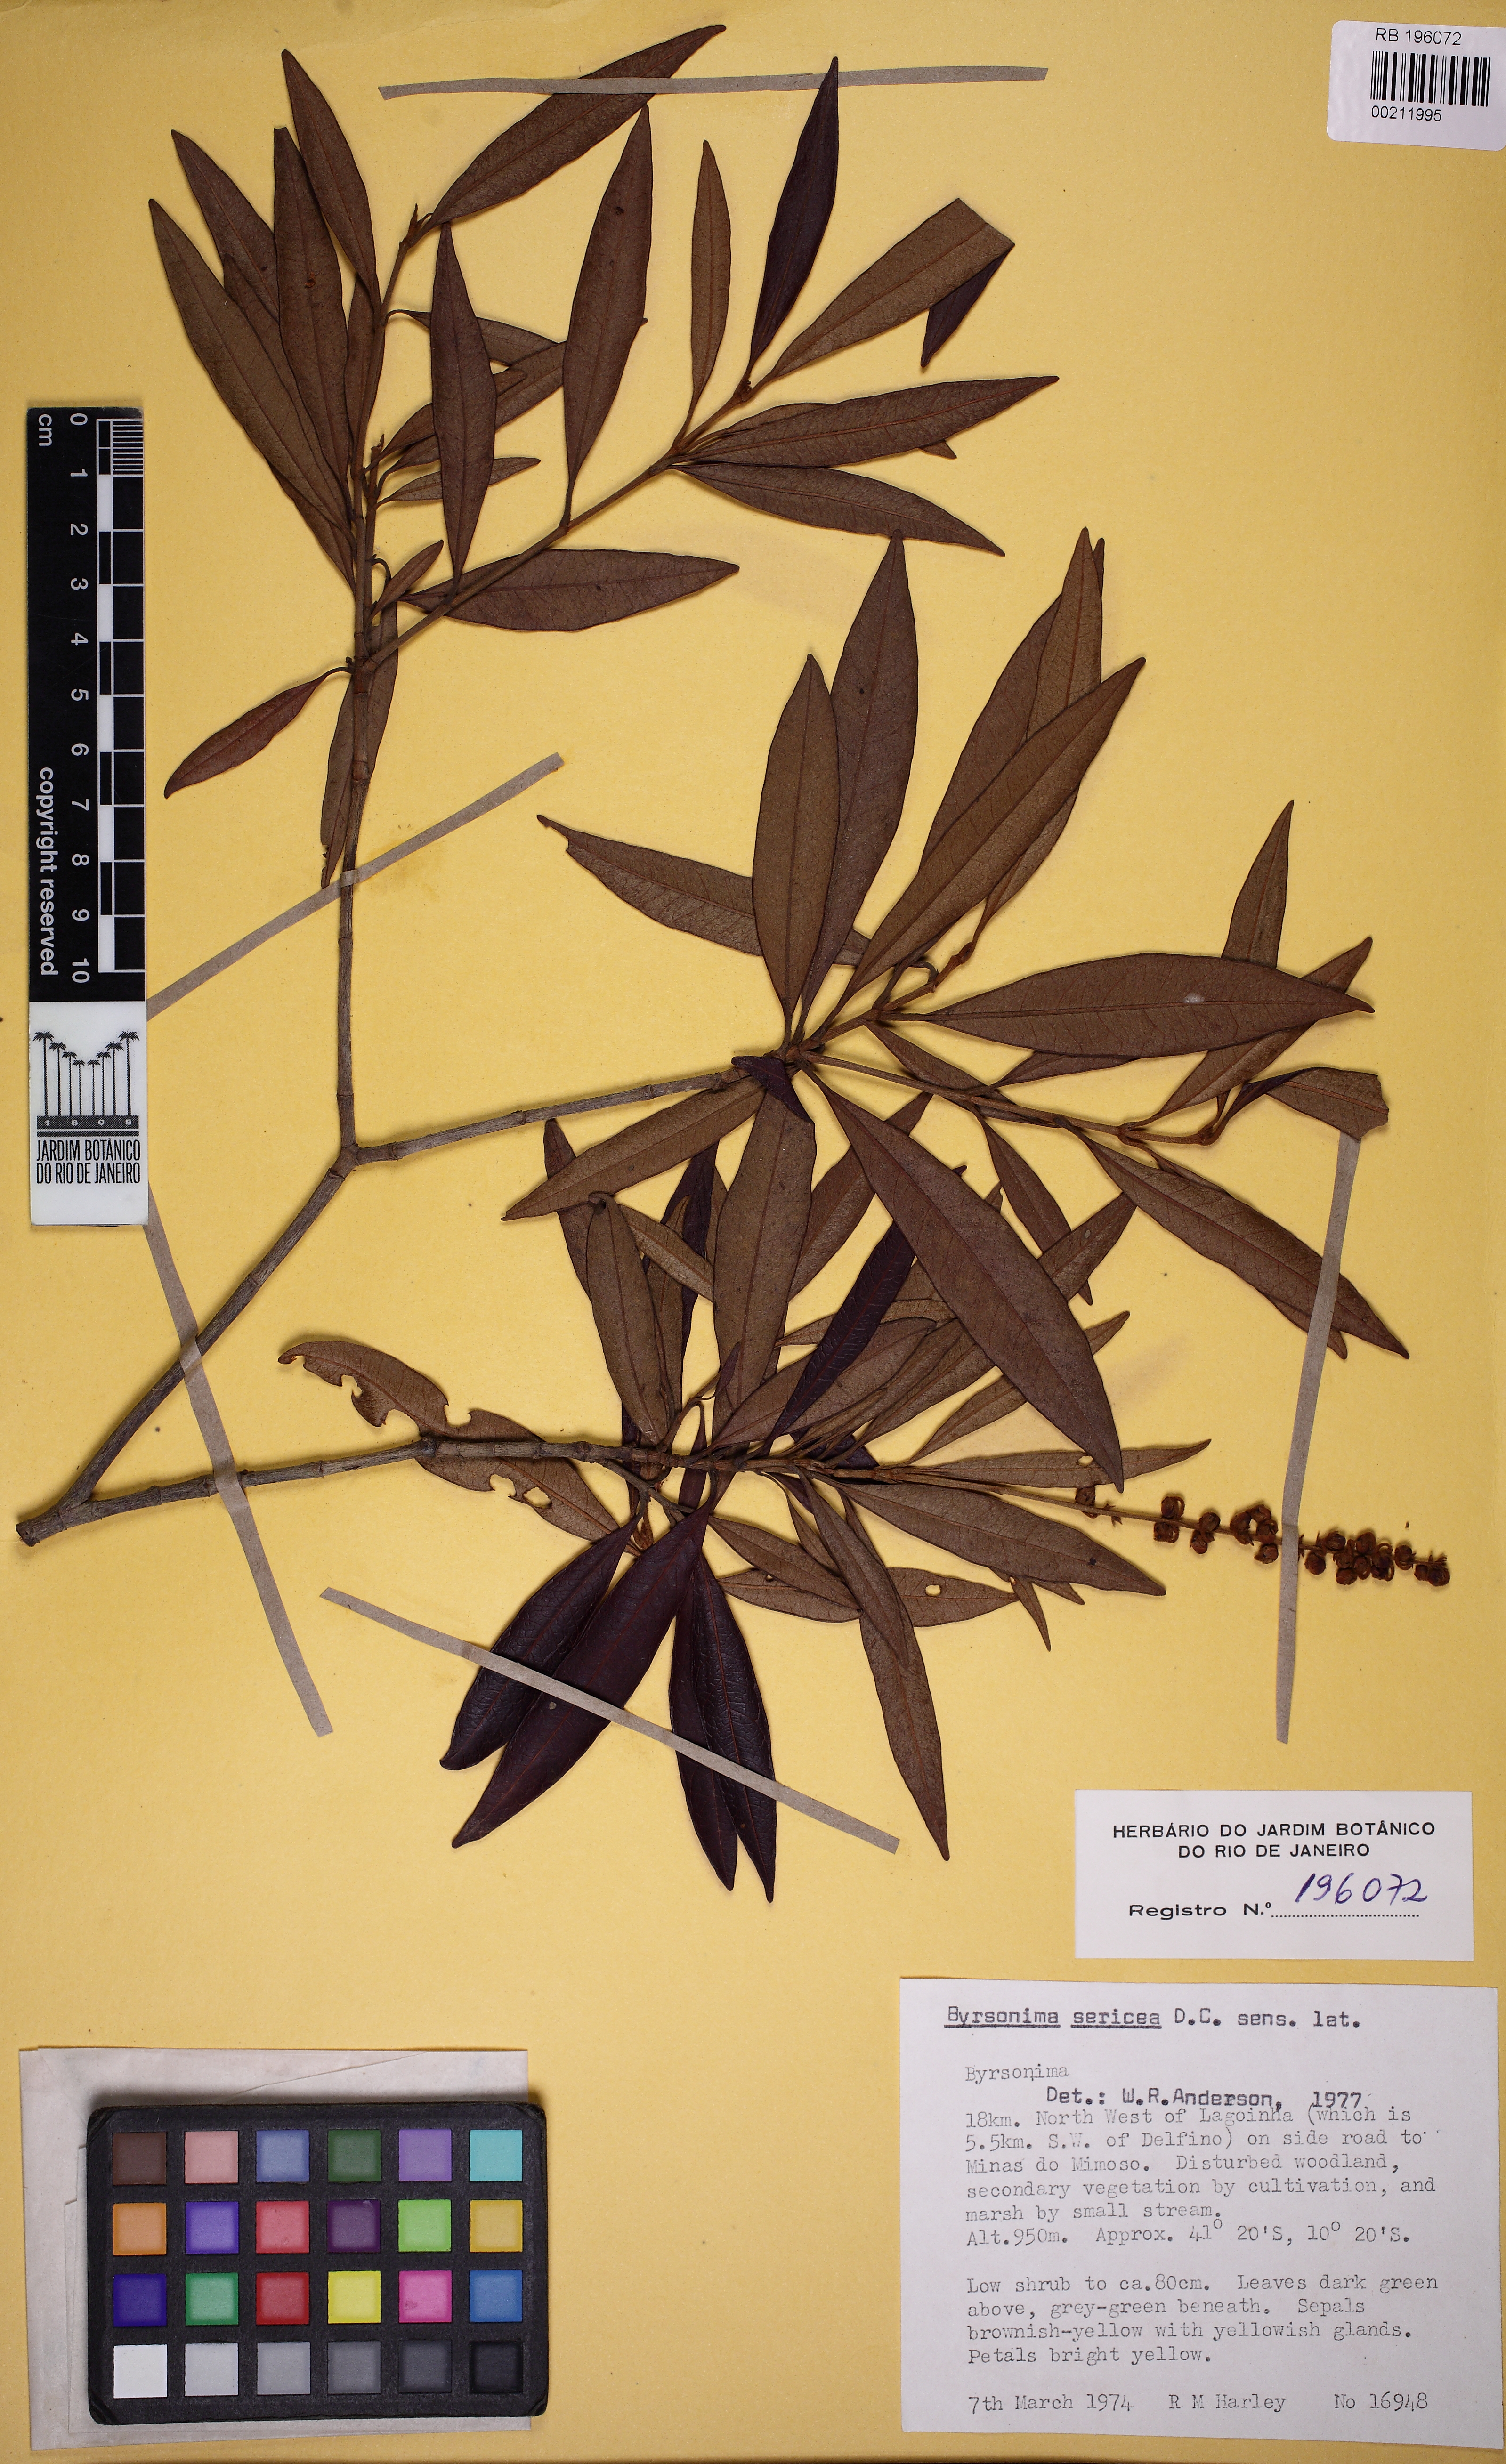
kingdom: Plantae
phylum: Tracheophyta
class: Magnoliopsida
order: Malpighiales
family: Malpighiaceae
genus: Byrsonima
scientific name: Byrsonima sericea
